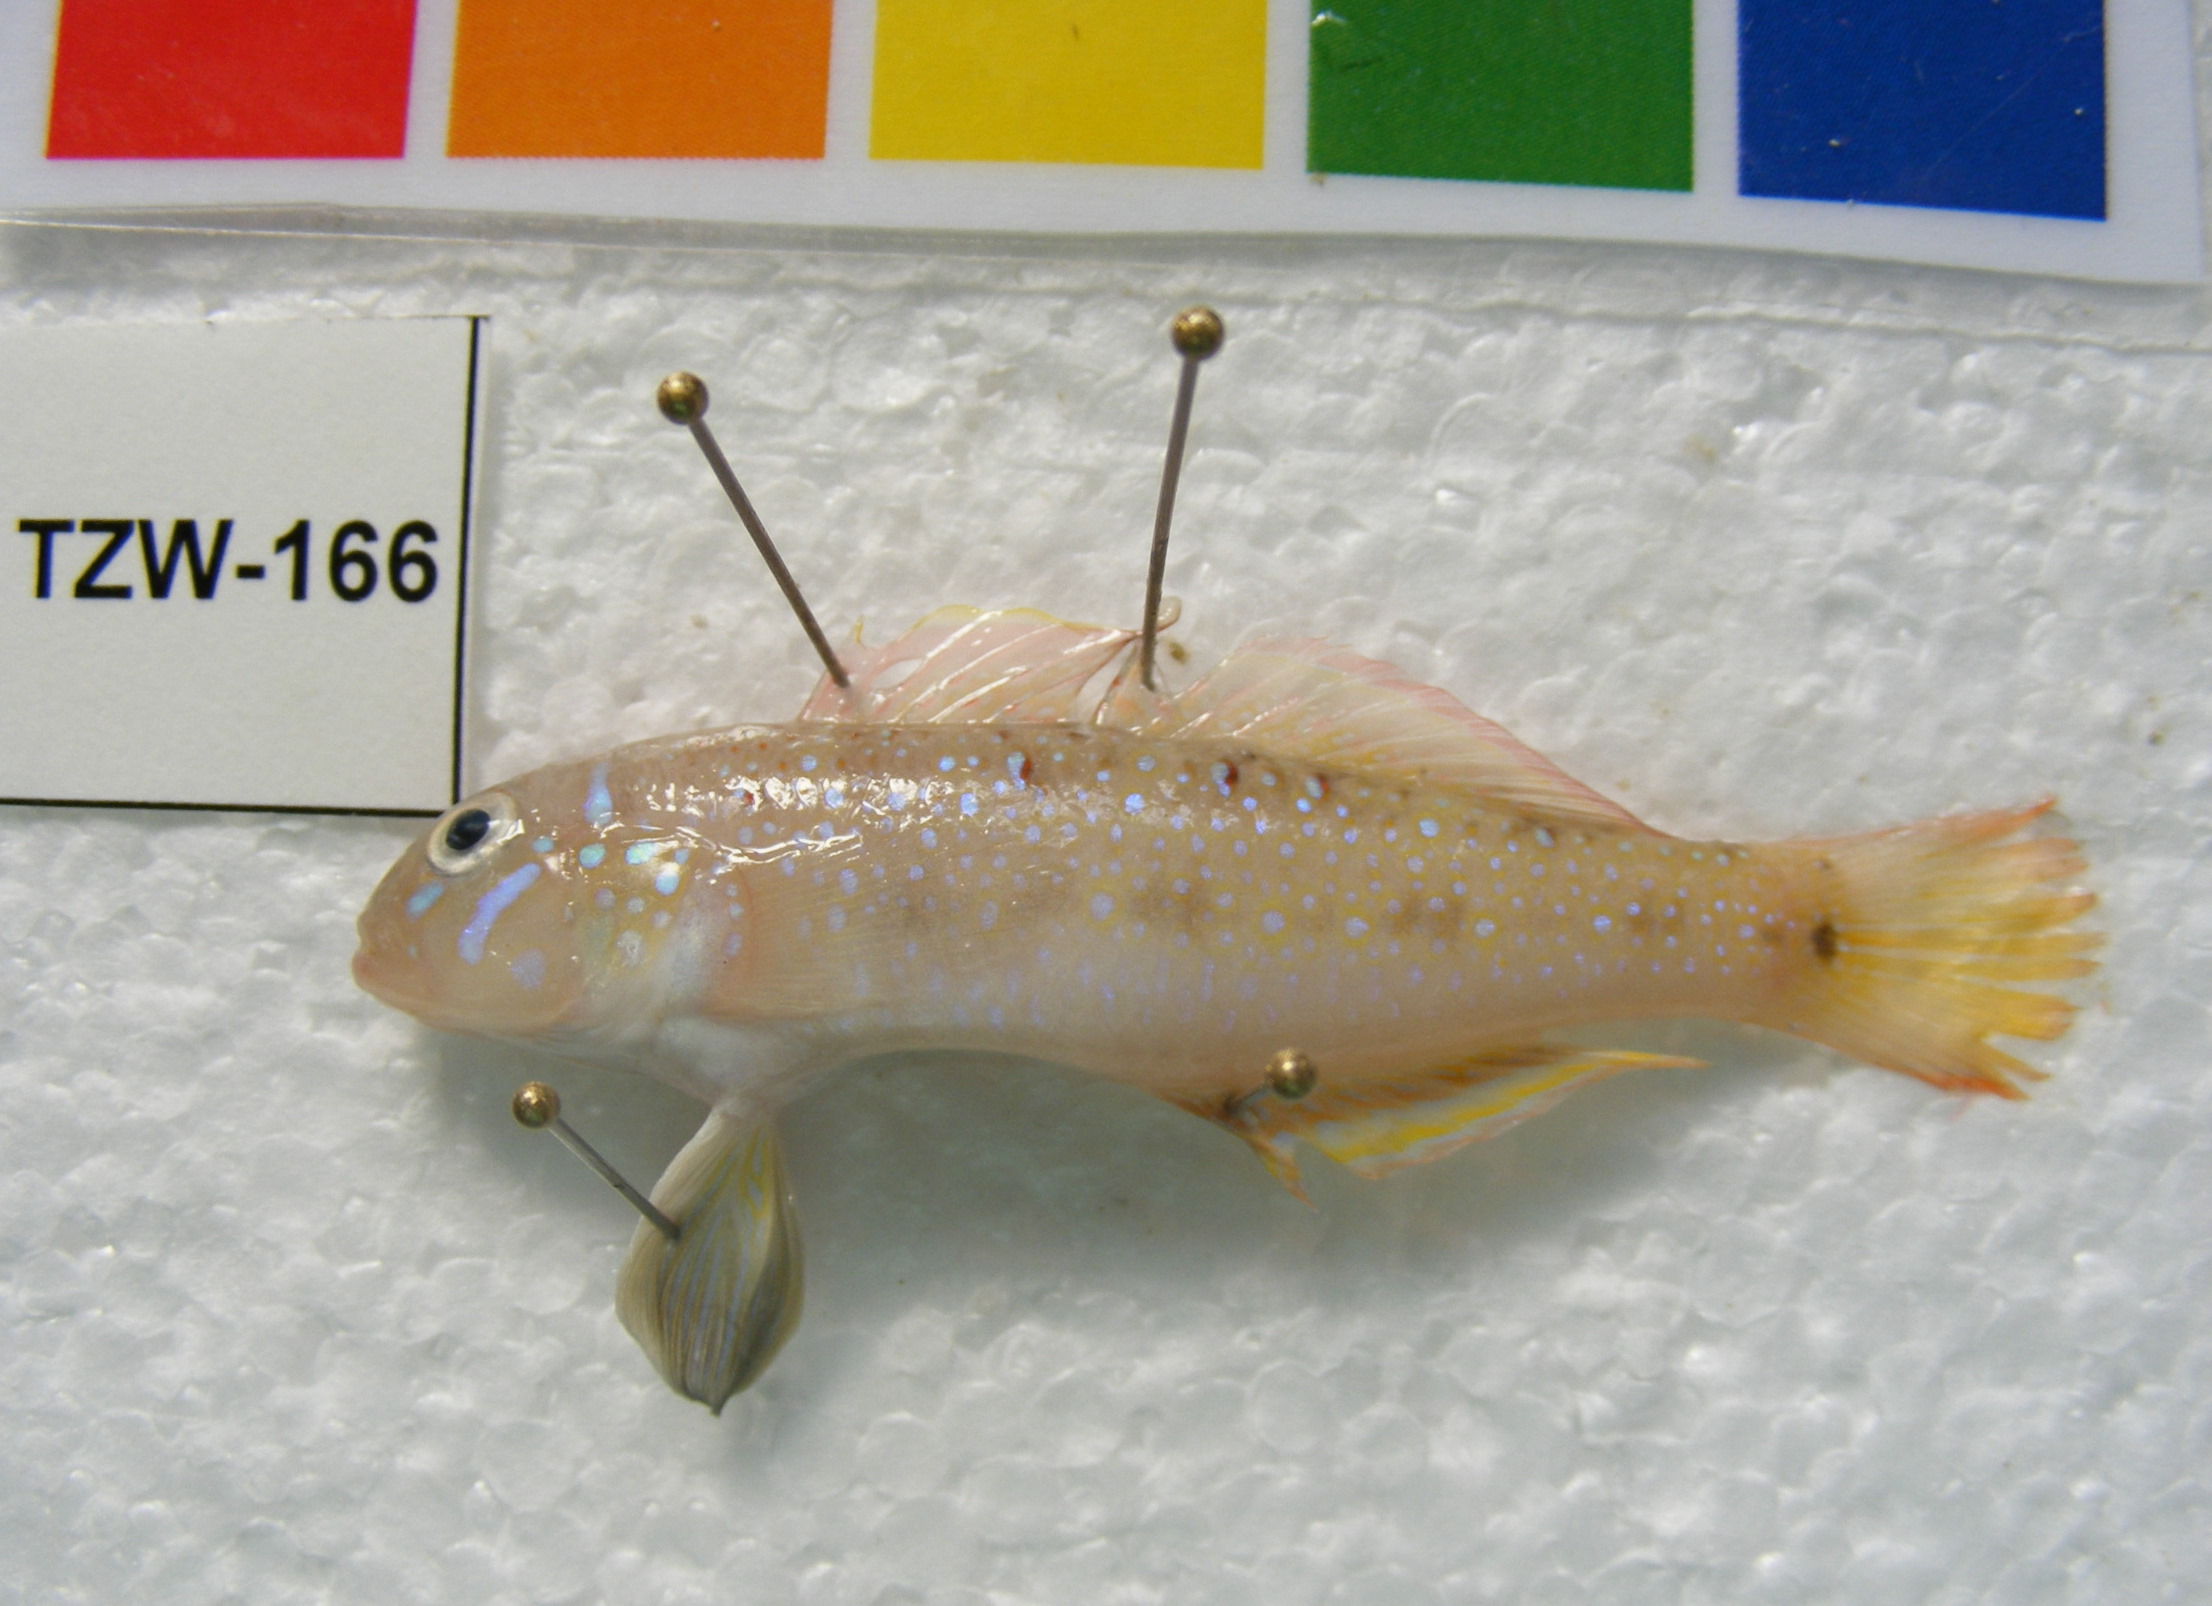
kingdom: Animalia
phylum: Chordata
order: Perciformes
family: Gobiidae
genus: Oplopomus
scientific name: Oplopomus oplopomus
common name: Spinecheek goby
